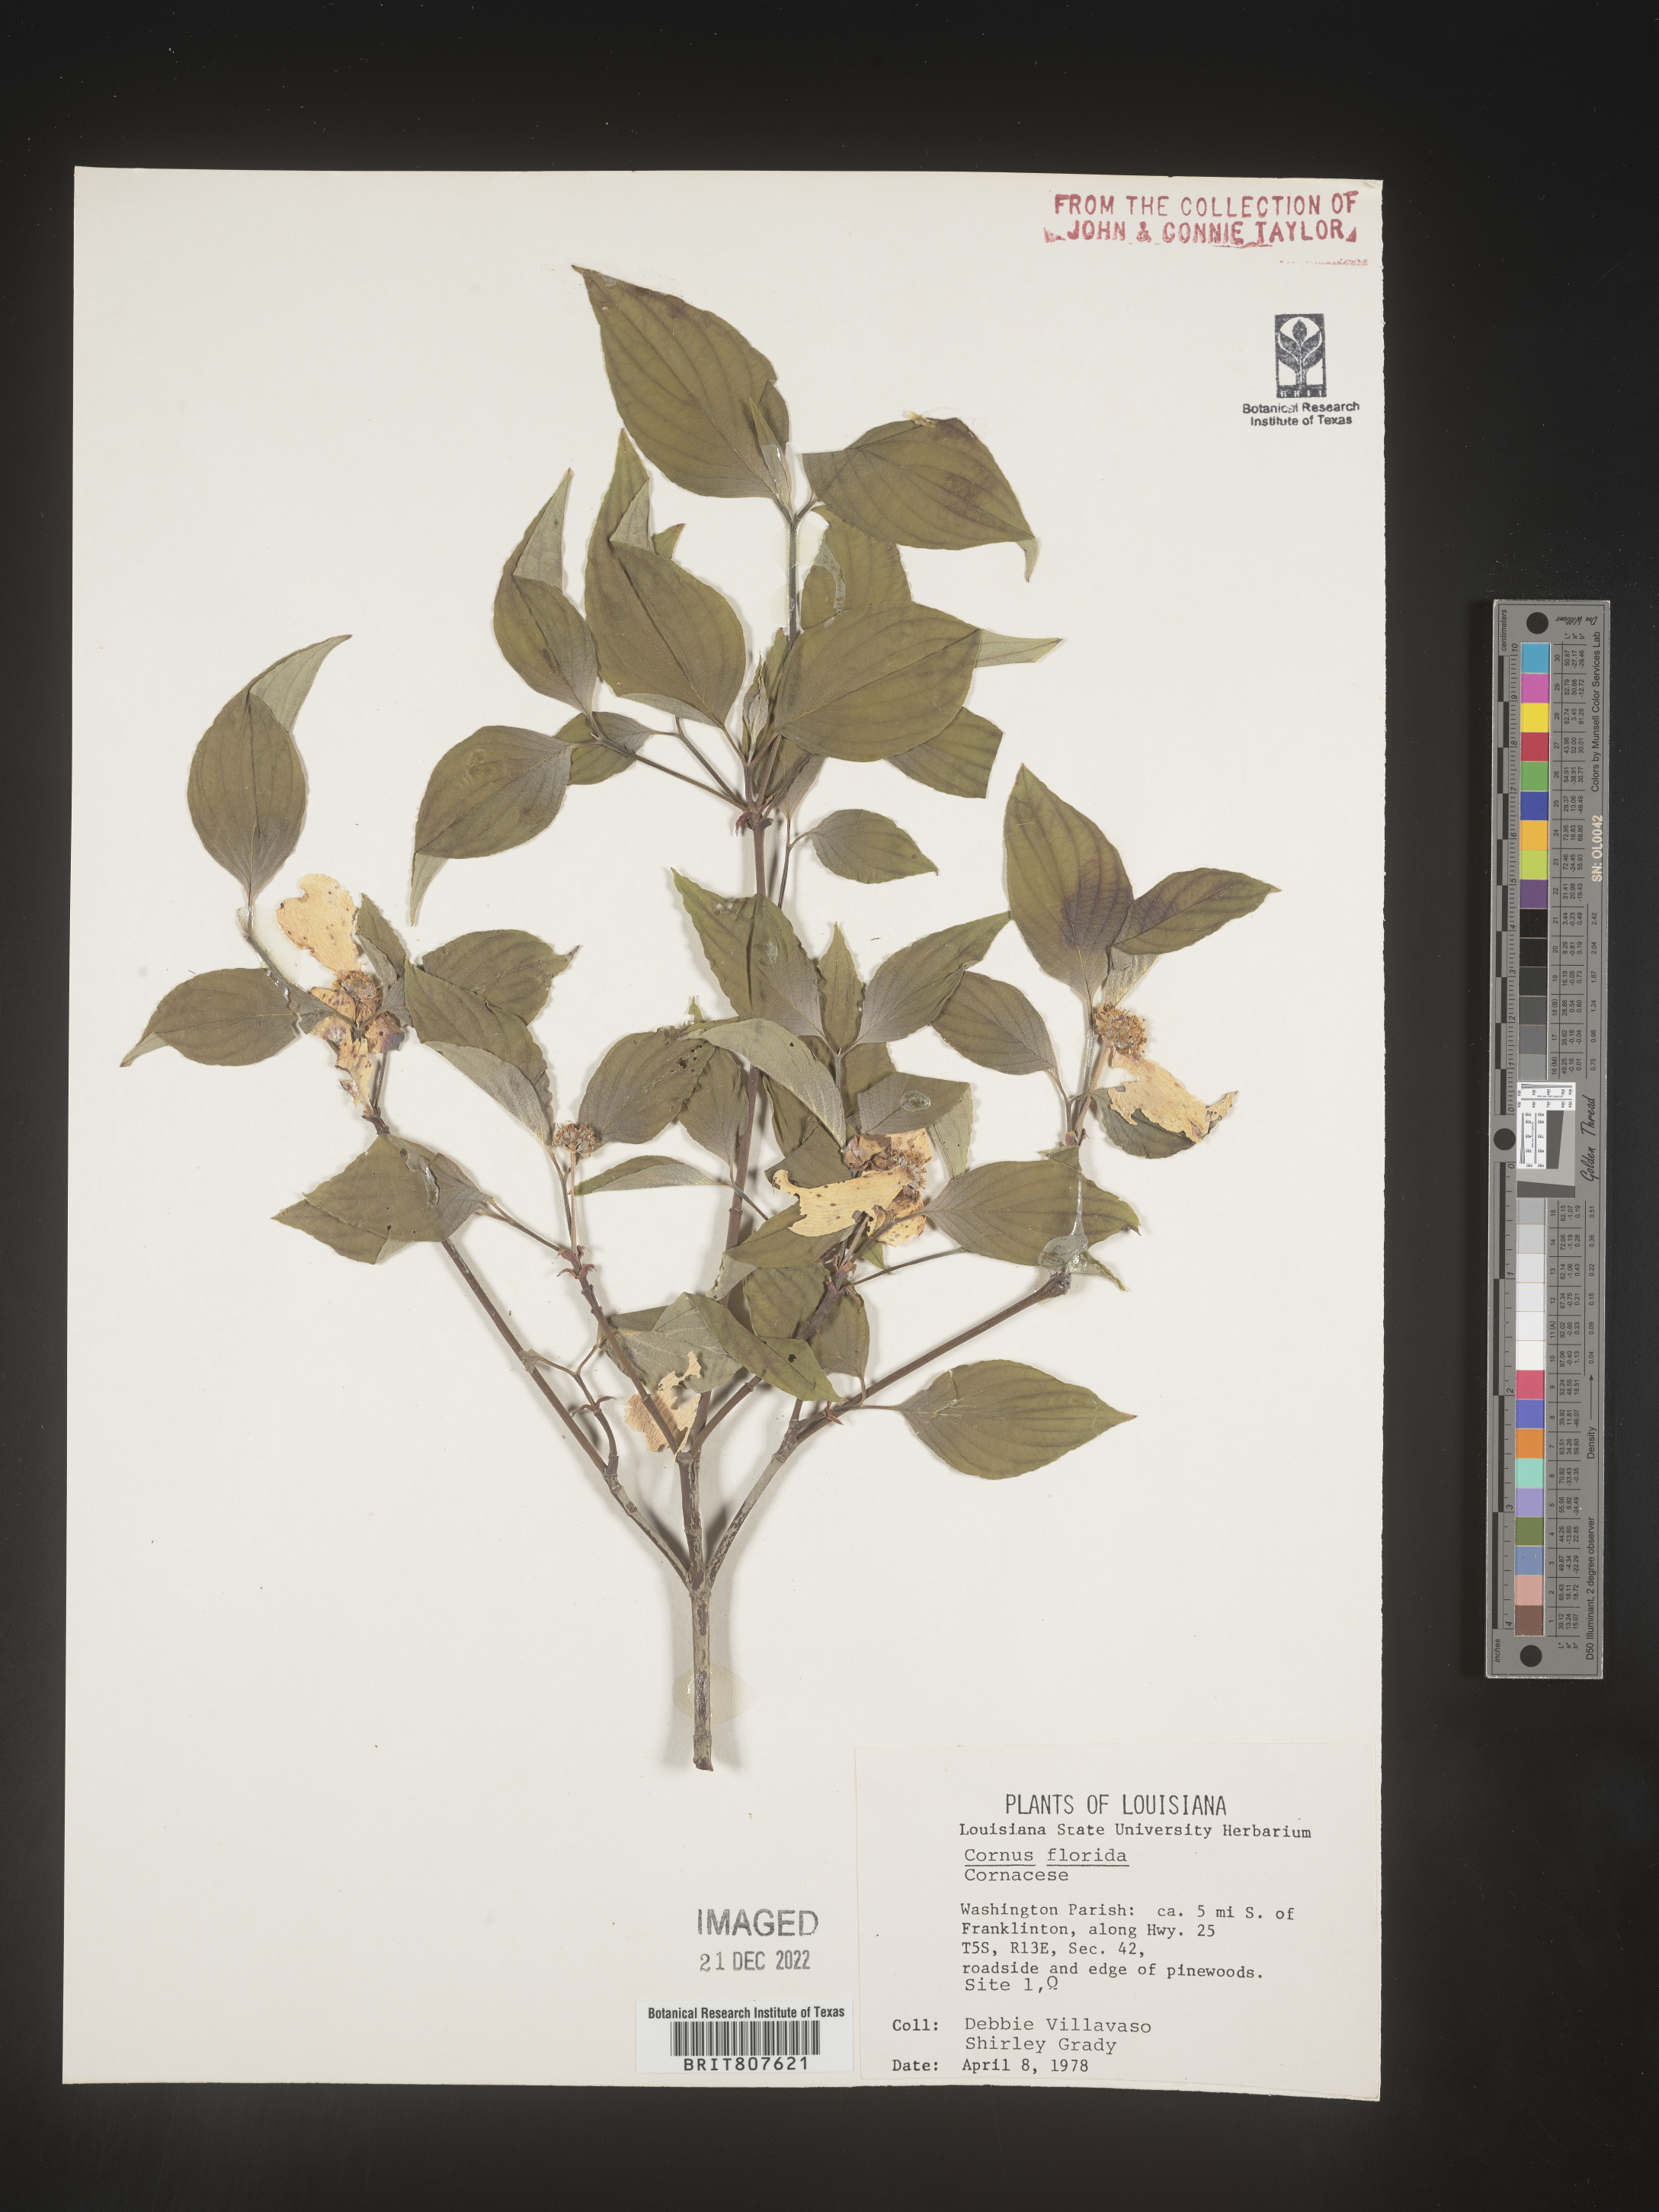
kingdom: Plantae
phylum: Tracheophyta
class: Magnoliopsida
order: Cornales
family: Cornaceae
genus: Cornus
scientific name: Cornus florida
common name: Flowering dogwood
